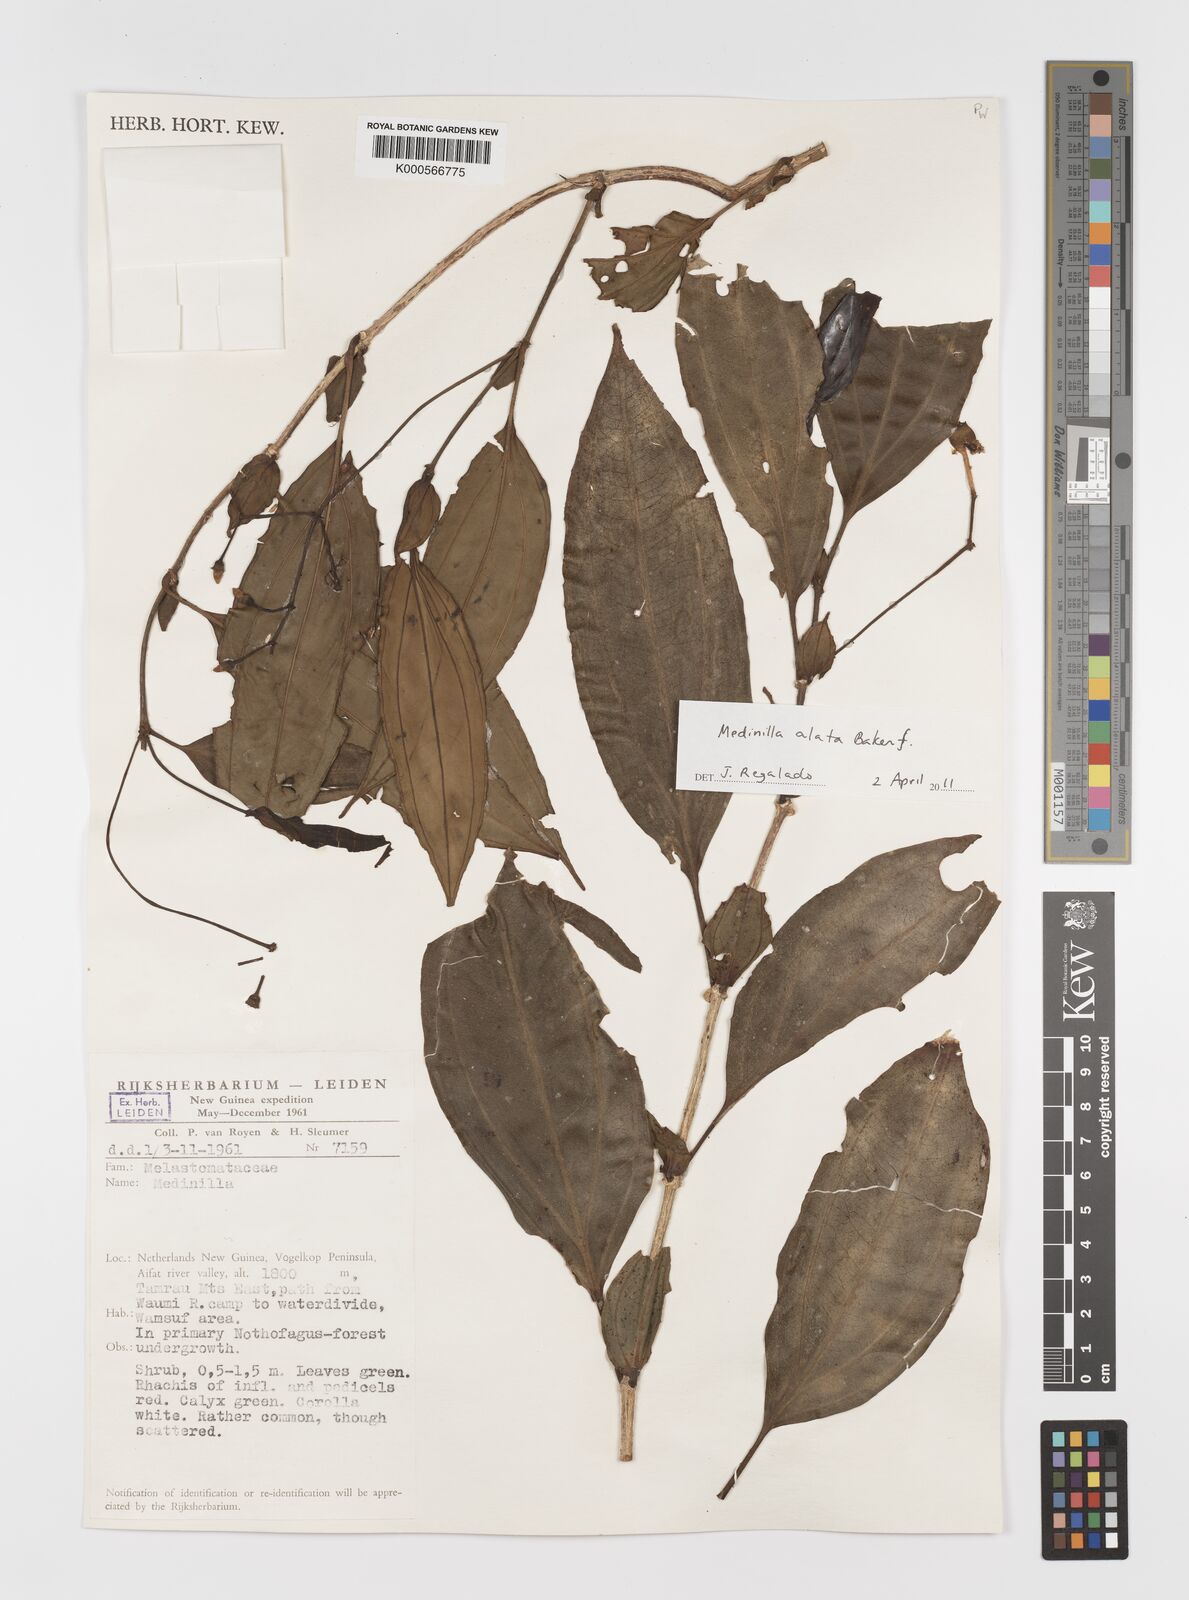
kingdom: Plantae
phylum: Tracheophyta
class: Magnoliopsida
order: Myrtales
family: Melastomataceae
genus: Medinilla
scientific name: Medinilla alata
